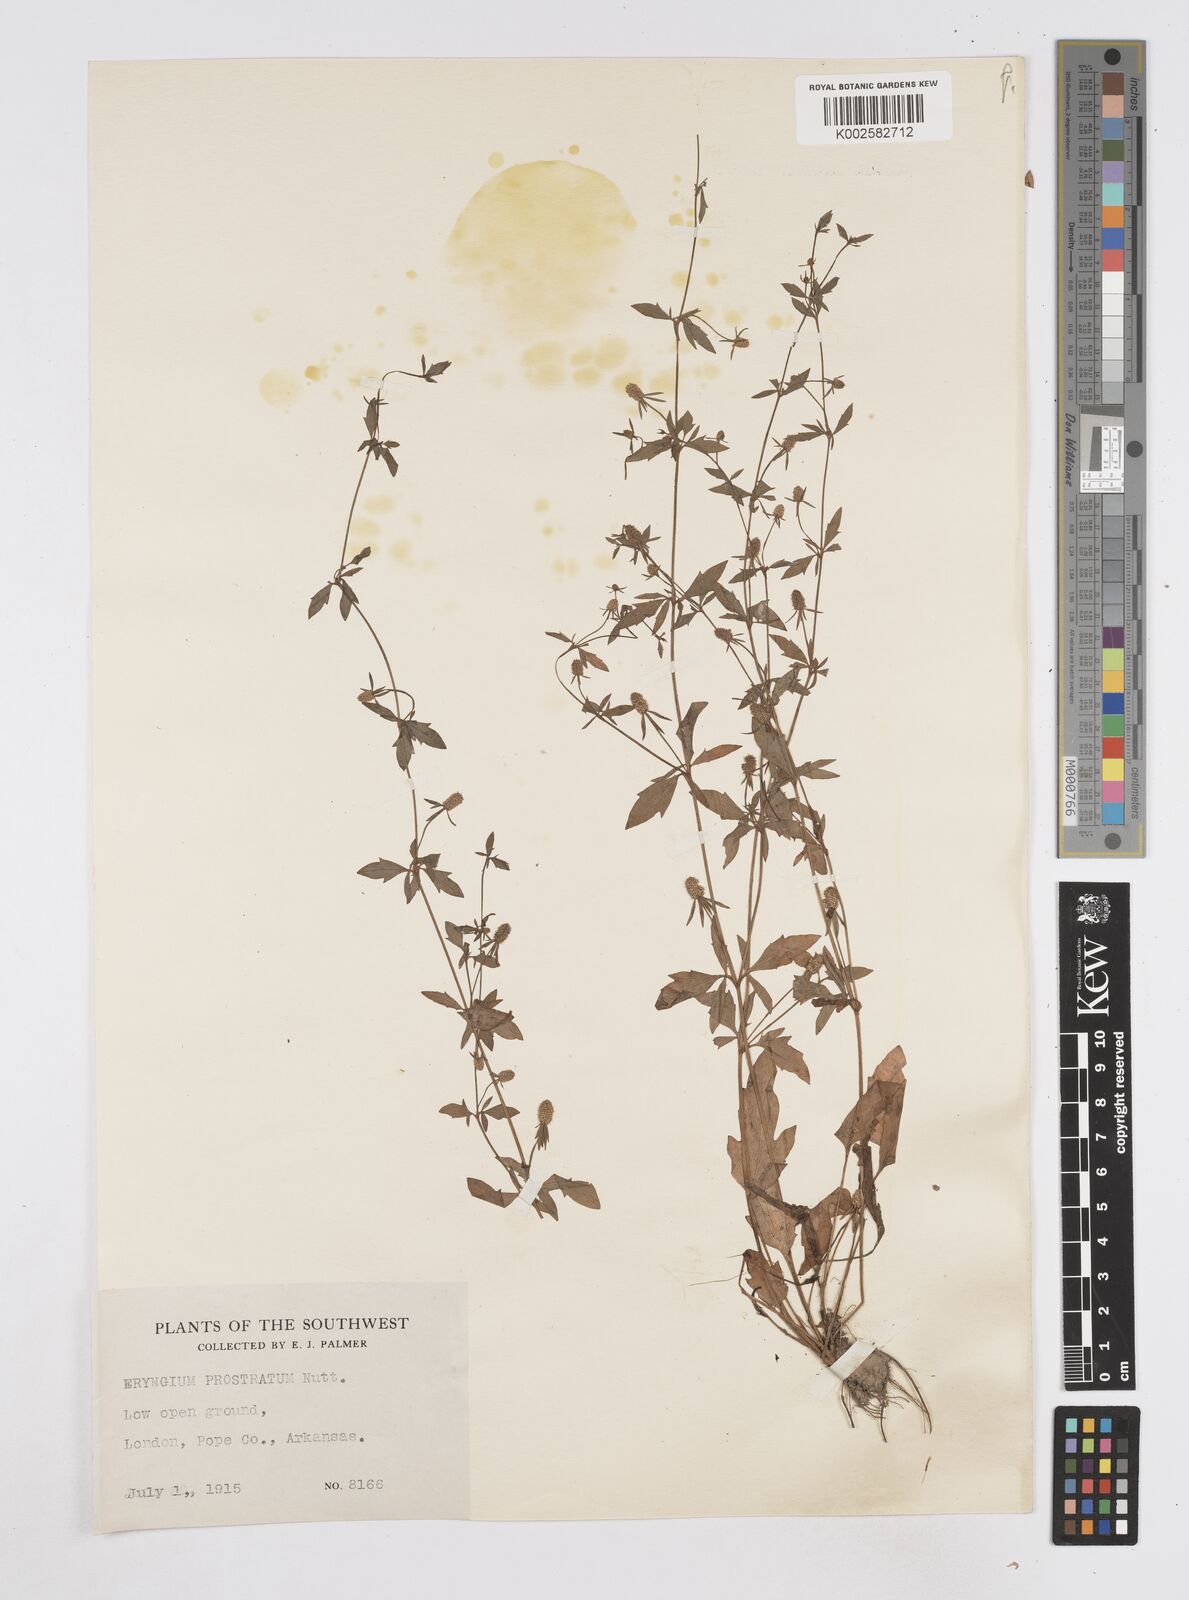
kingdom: Plantae
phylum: Tracheophyta
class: Magnoliopsida
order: Apiales
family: Apiaceae
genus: Eryngium
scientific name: Eryngium prostratum
